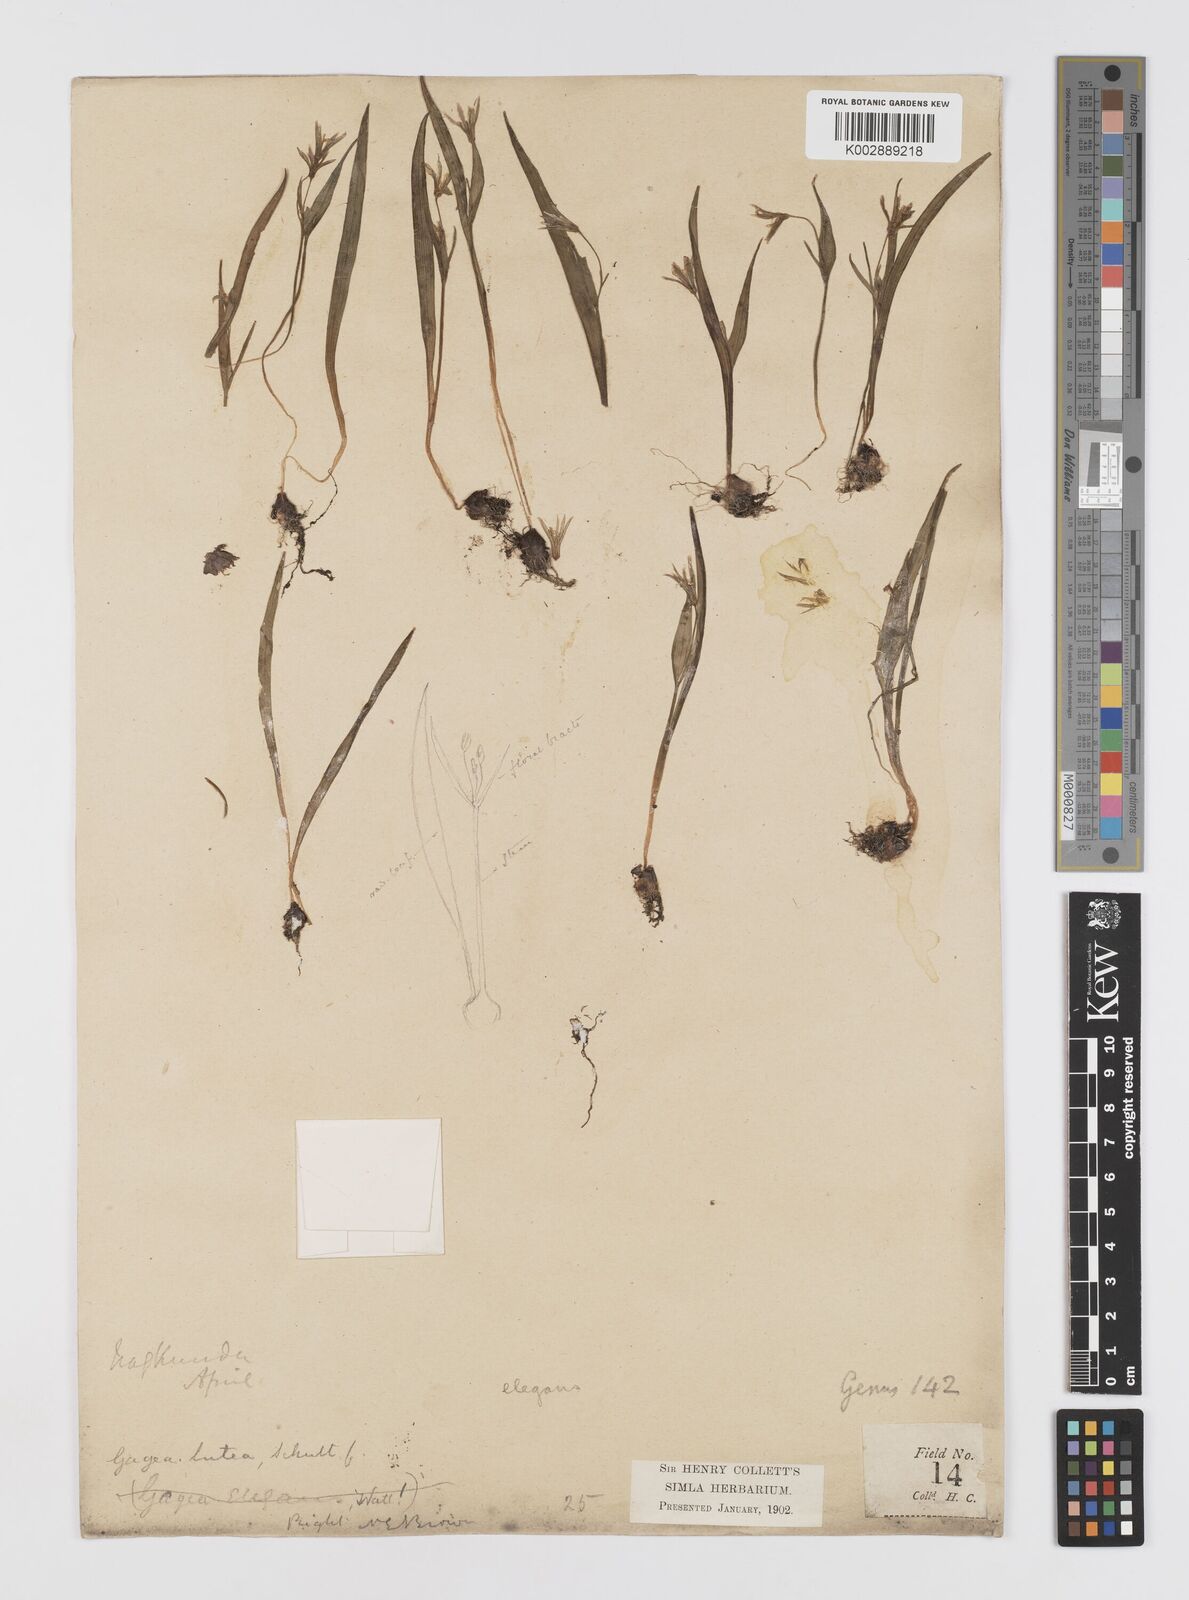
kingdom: Plantae
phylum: Tracheophyta
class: Liliopsida
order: Liliales
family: Liliaceae
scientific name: Liliaceae
